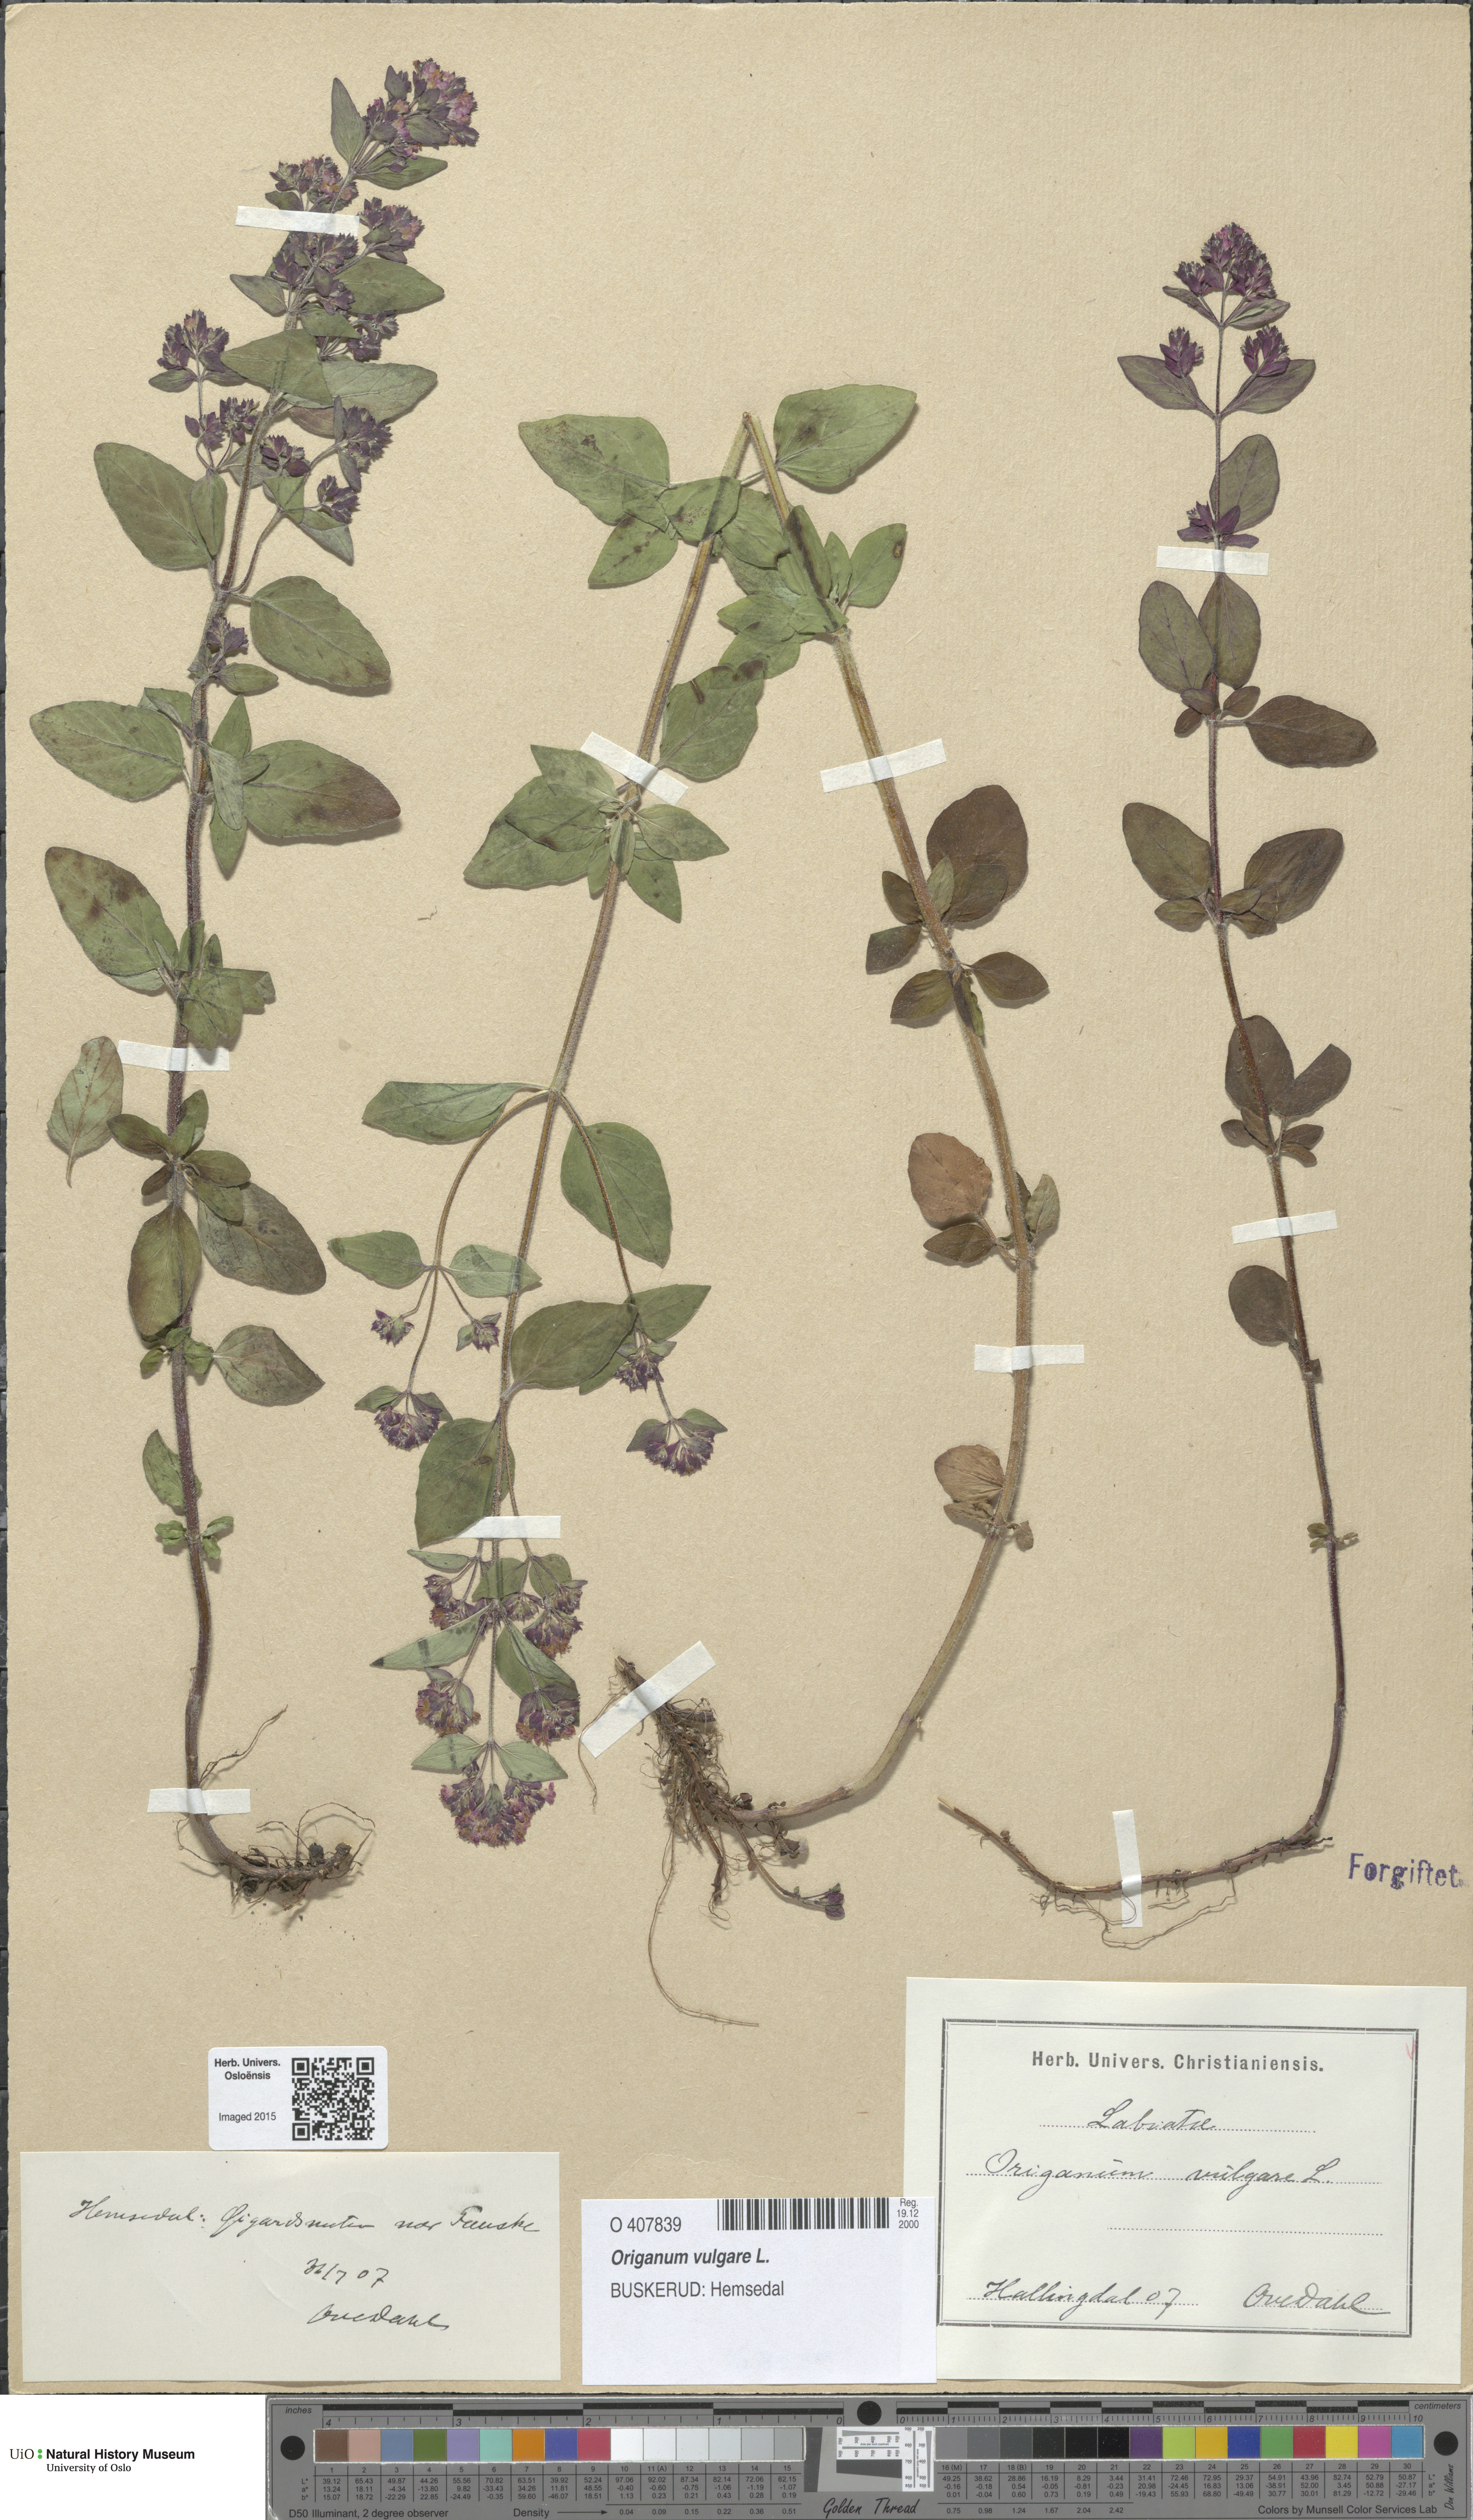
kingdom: Plantae
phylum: Tracheophyta
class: Magnoliopsida
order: Lamiales
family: Lamiaceae
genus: Origanum
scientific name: Origanum vulgare
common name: Wild marjoram
